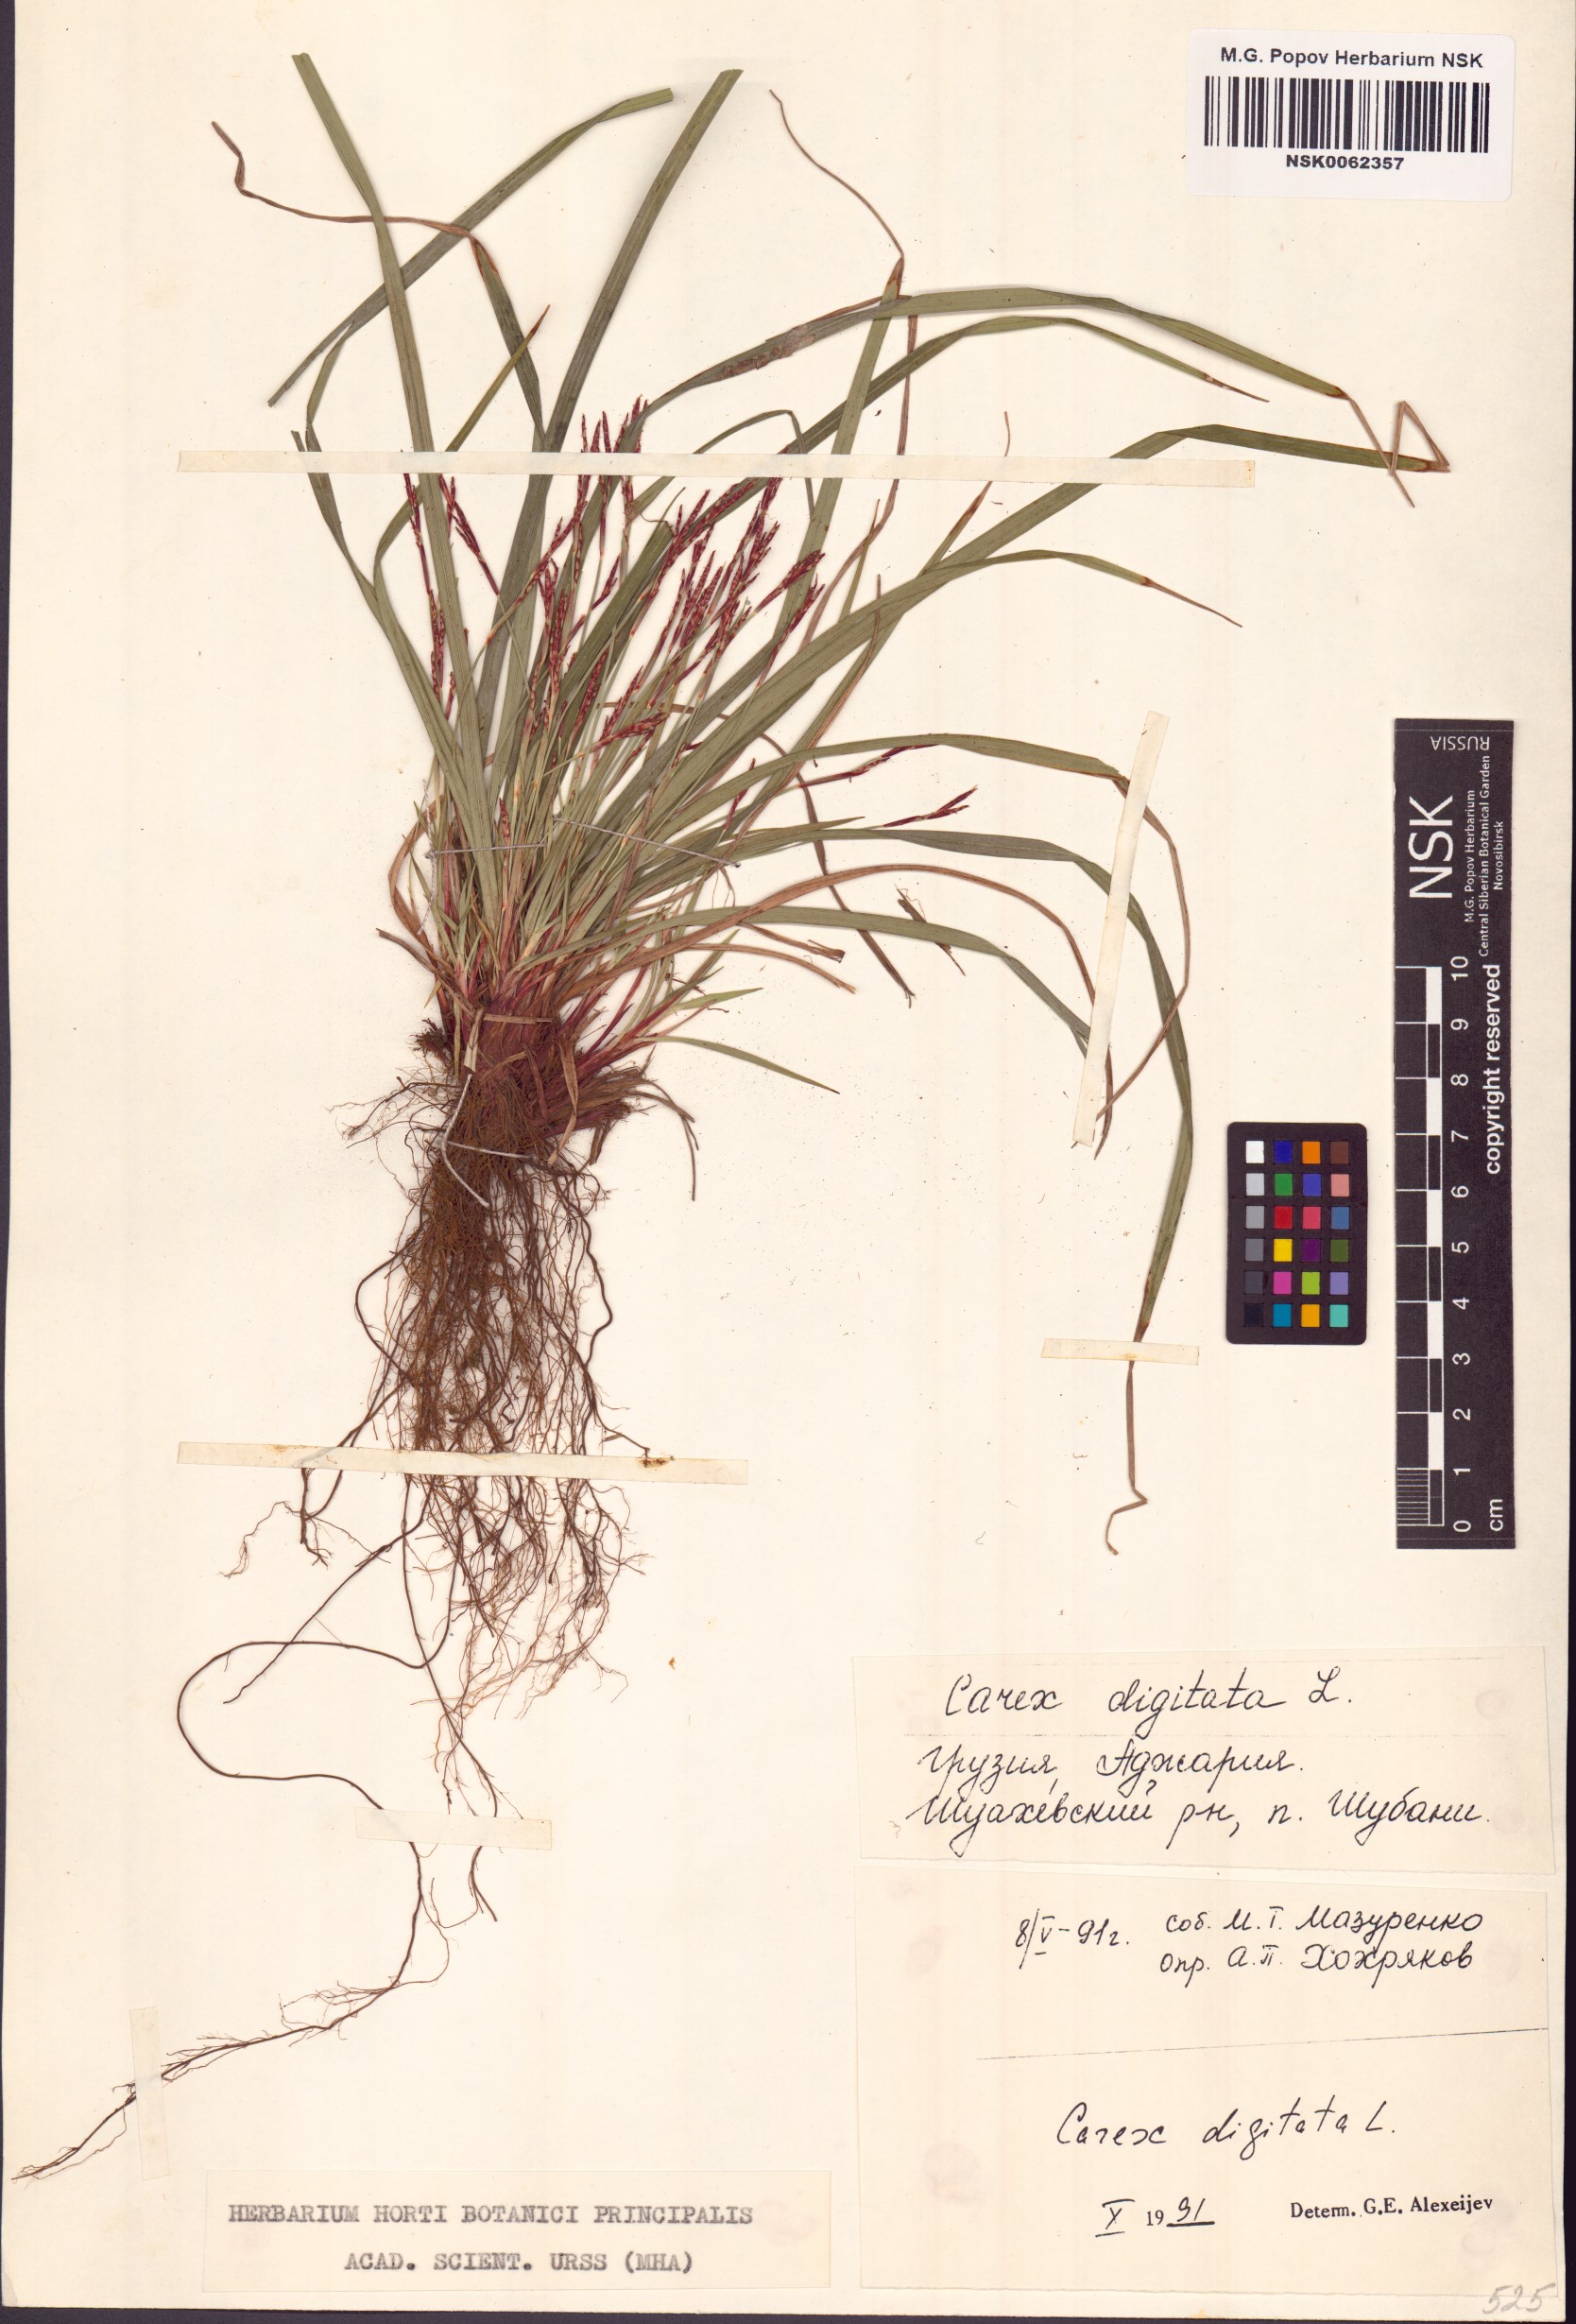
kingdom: Plantae
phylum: Tracheophyta
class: Liliopsida
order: Poales
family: Cyperaceae
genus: Carex
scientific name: Carex digitata
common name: Fingered sedge
